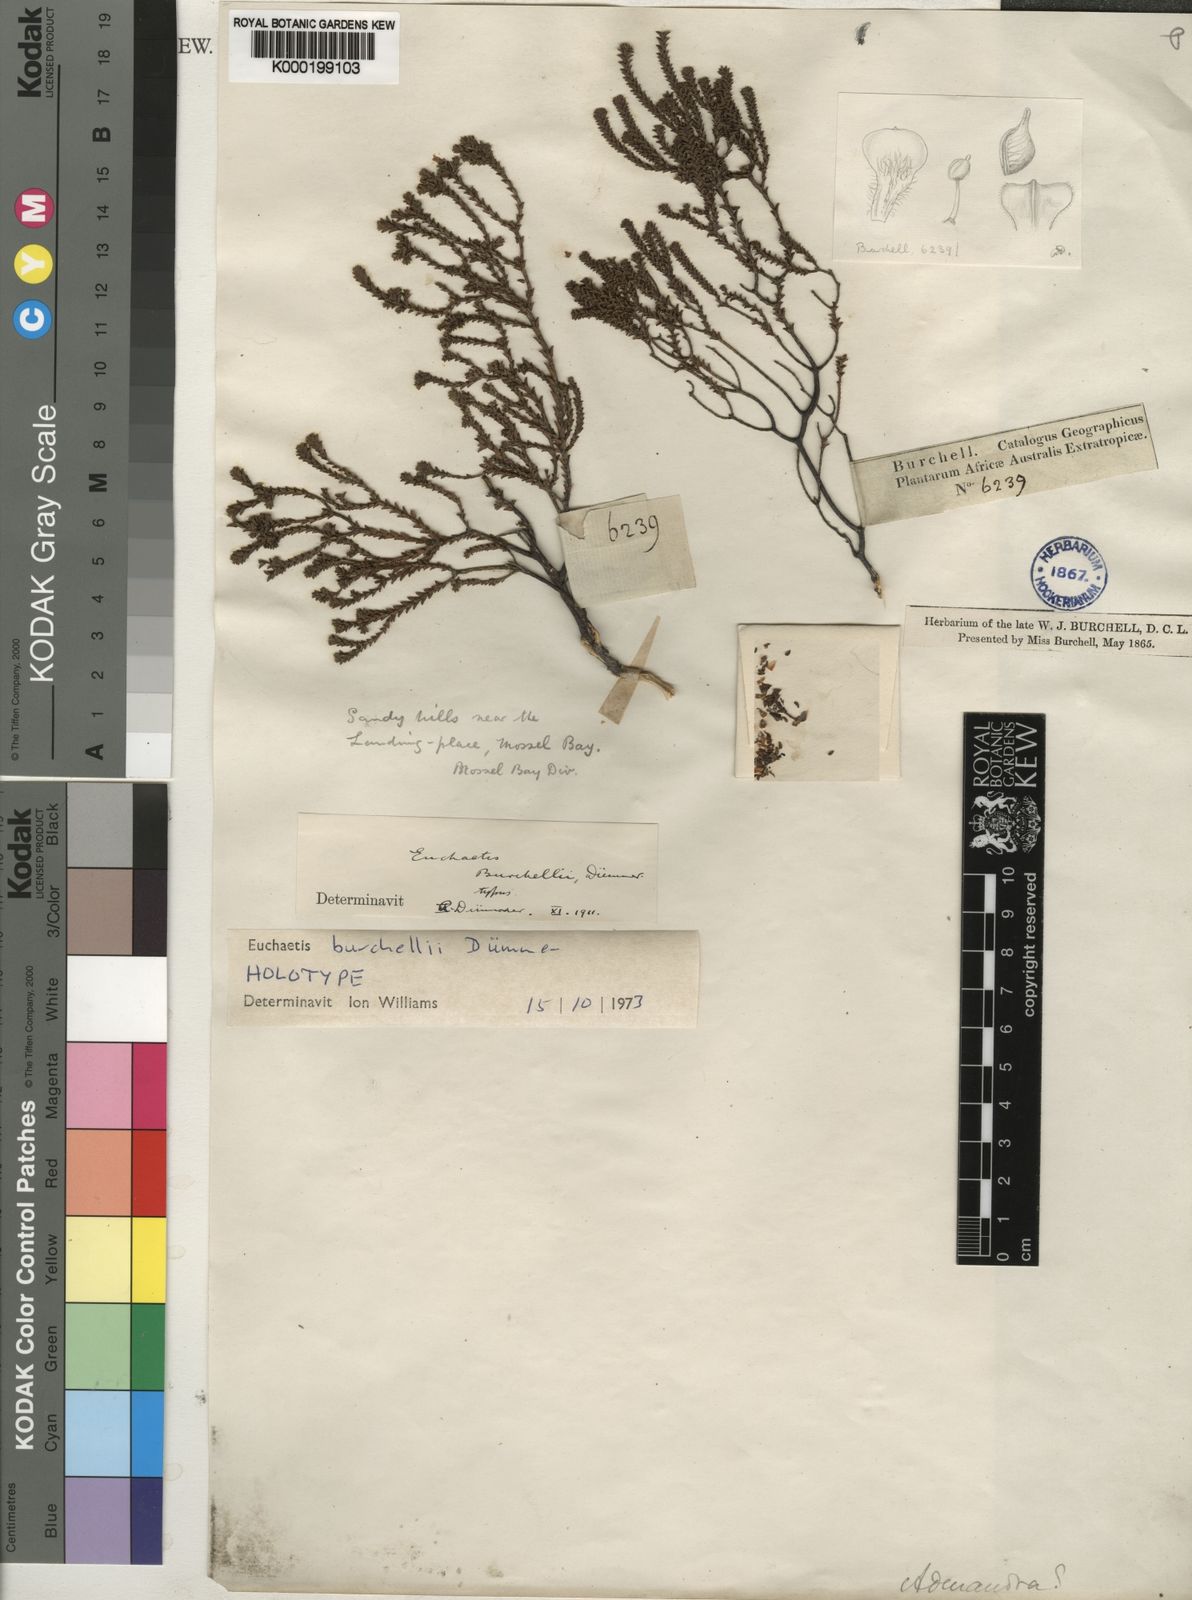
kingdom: Plantae
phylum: Tracheophyta
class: Magnoliopsida
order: Sapindales
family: Rutaceae
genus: Euchaetis
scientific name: Euchaetis burchellii
